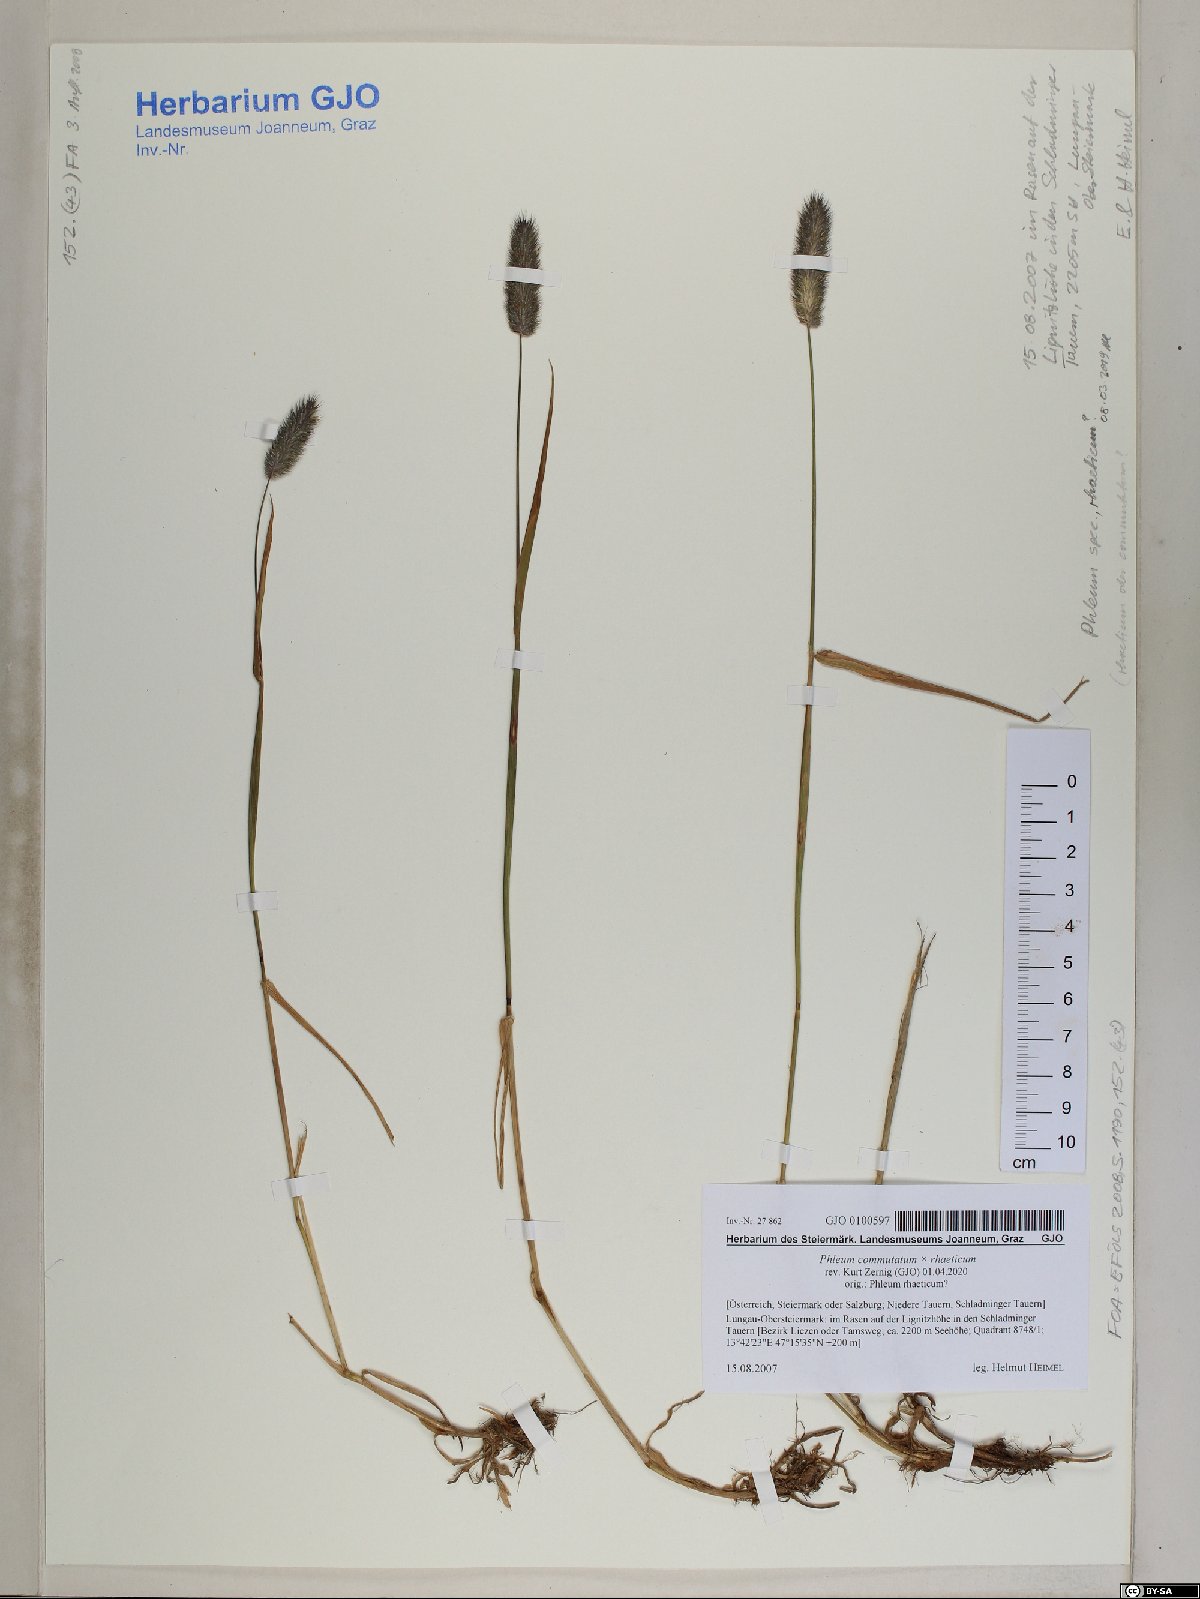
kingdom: Plantae
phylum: Tracheophyta
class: Liliopsida
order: Poales
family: Poaceae
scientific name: Poaceae
